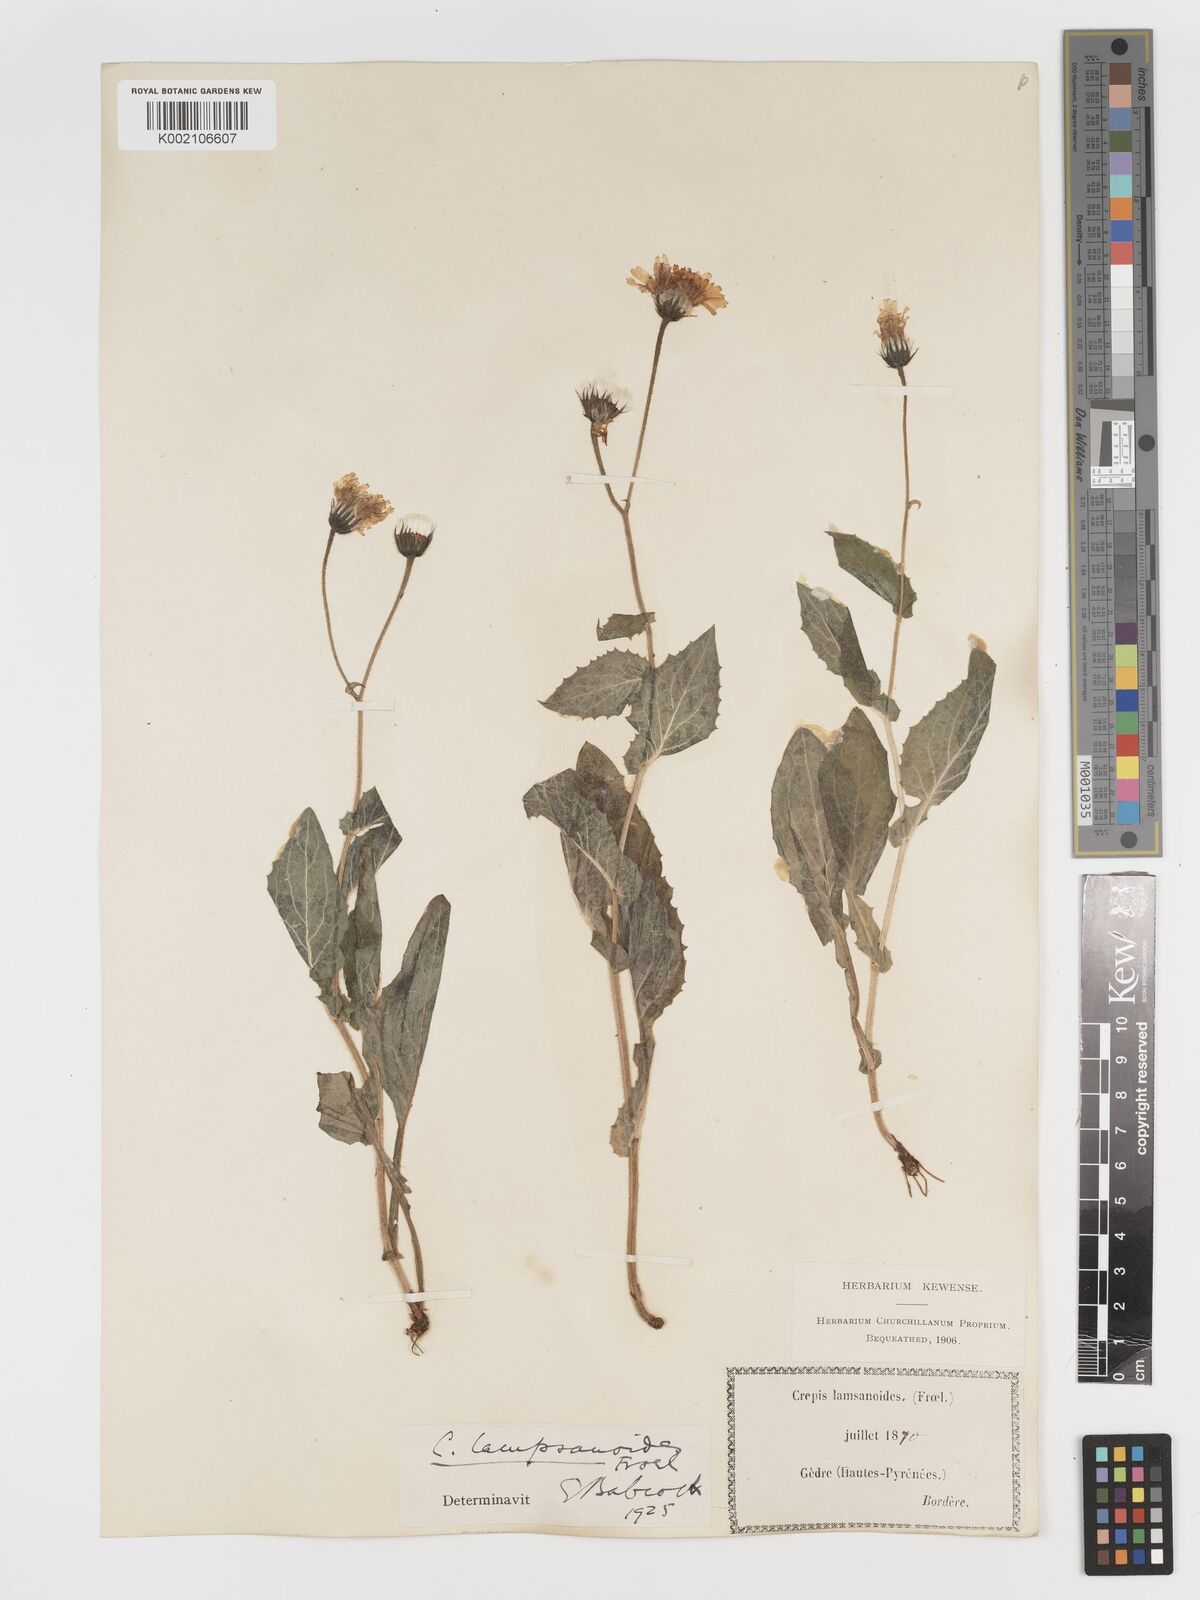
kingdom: Plantae
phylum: Tracheophyta
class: Magnoliopsida
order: Asterales
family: Asteraceae
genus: Crepis
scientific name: Crepis lampsanoides
